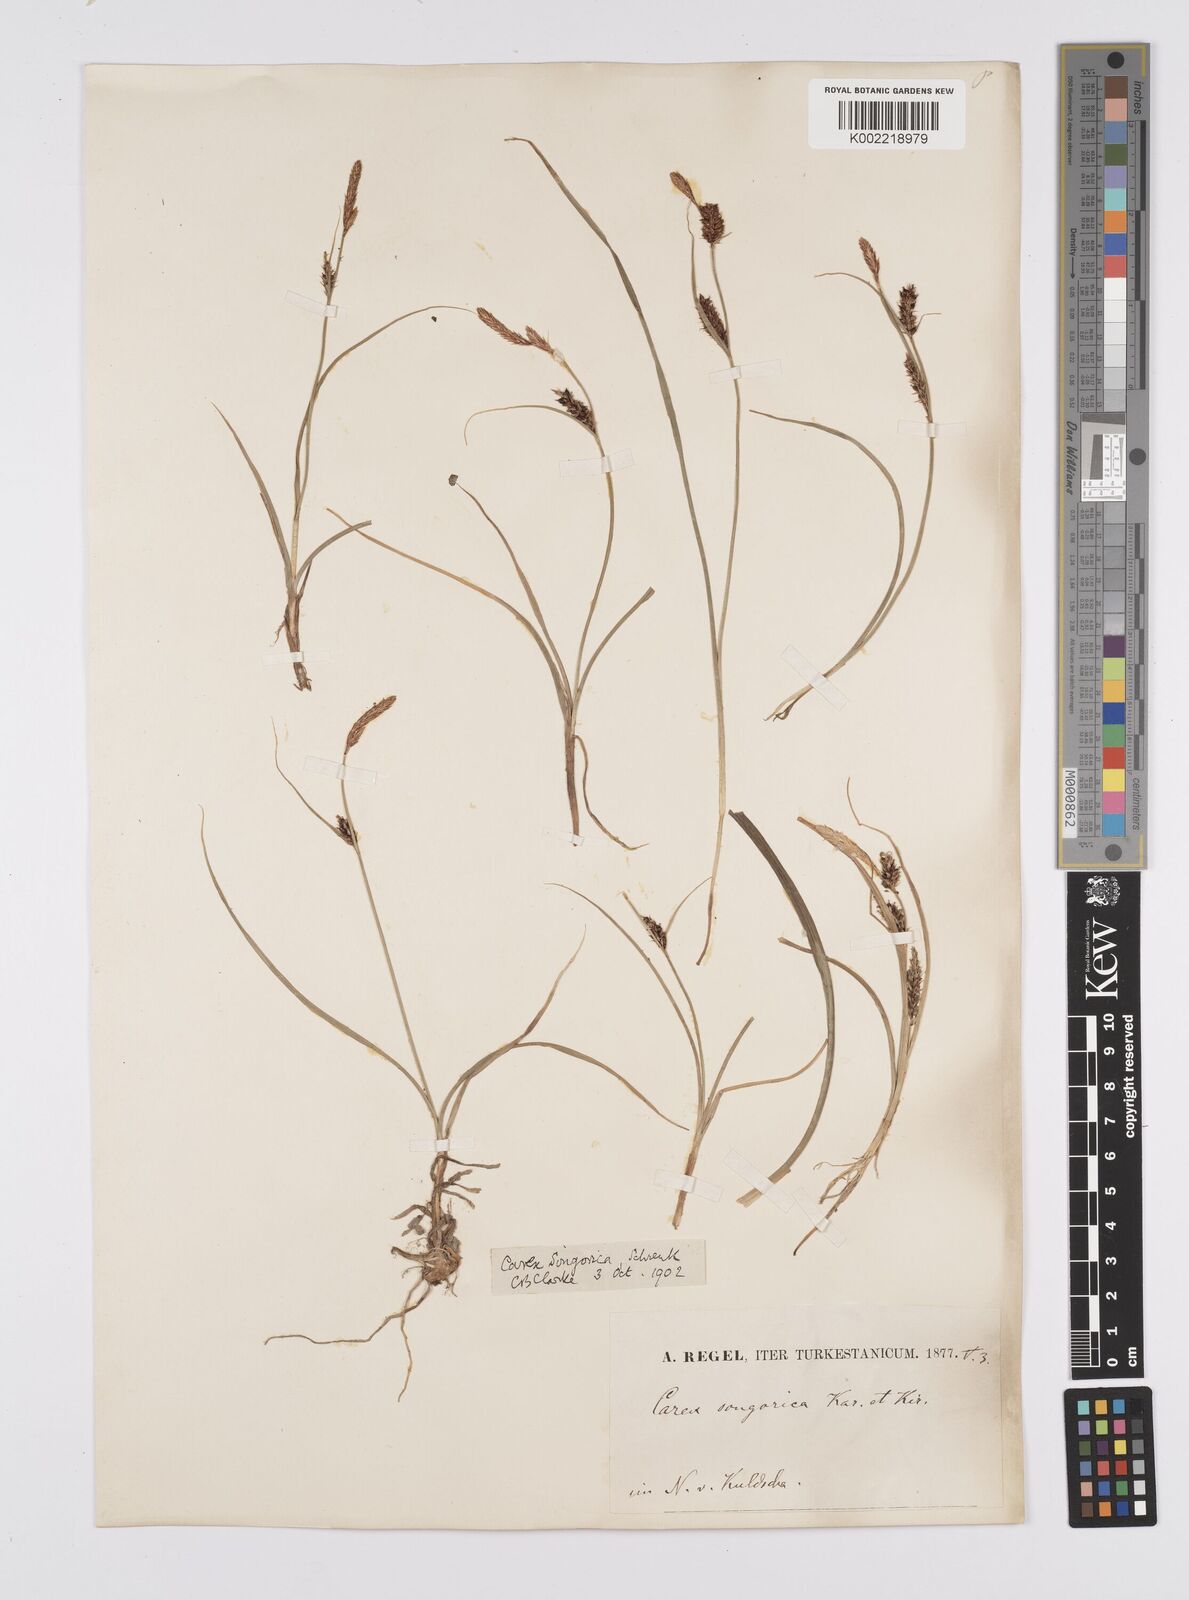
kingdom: Plantae
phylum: Tracheophyta
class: Liliopsida
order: Poales
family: Cyperaceae
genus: Carex
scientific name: Carex heterostachya
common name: Different-spike sedge
